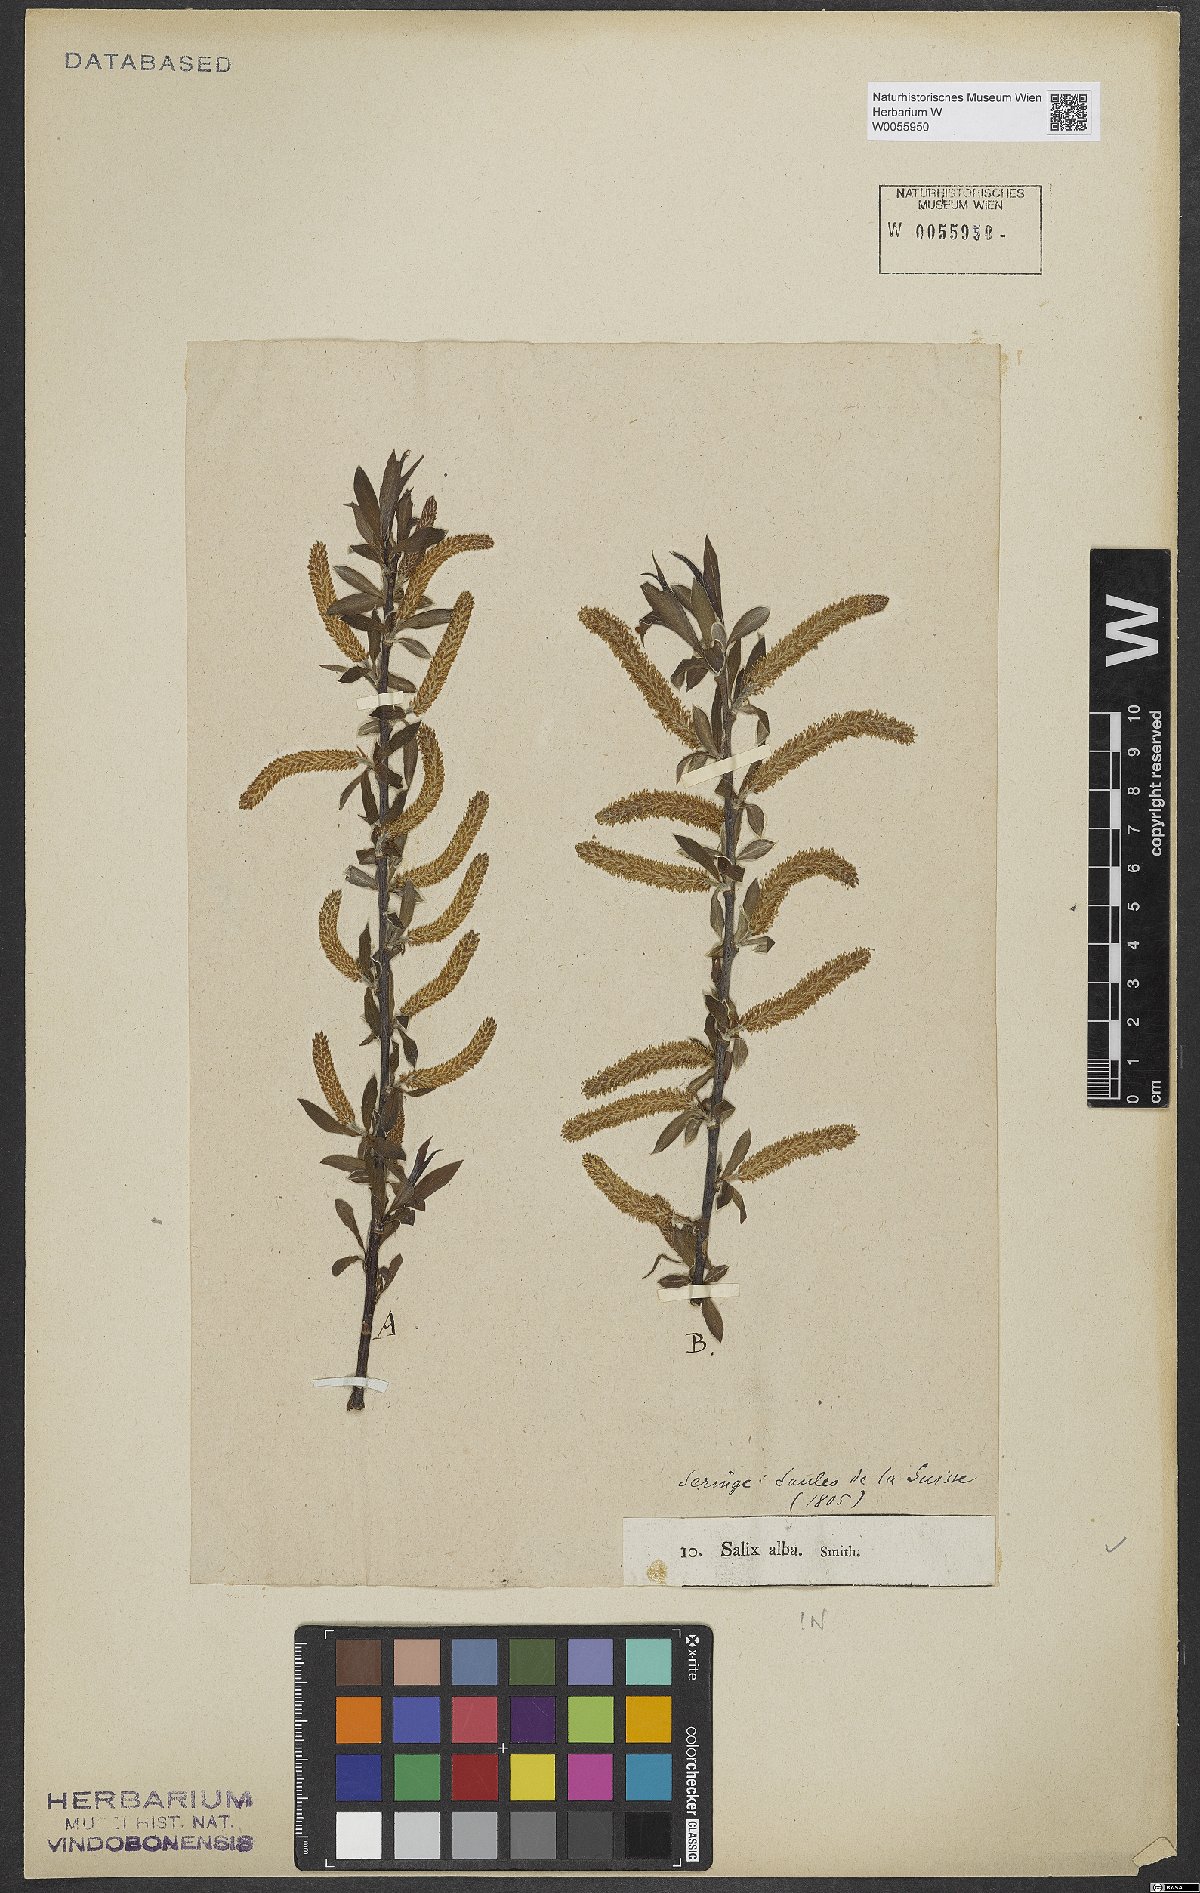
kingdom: Plantae
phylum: Tracheophyta
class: Magnoliopsida
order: Malpighiales
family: Salicaceae
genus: Salix
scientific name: Salix alba
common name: White willow
